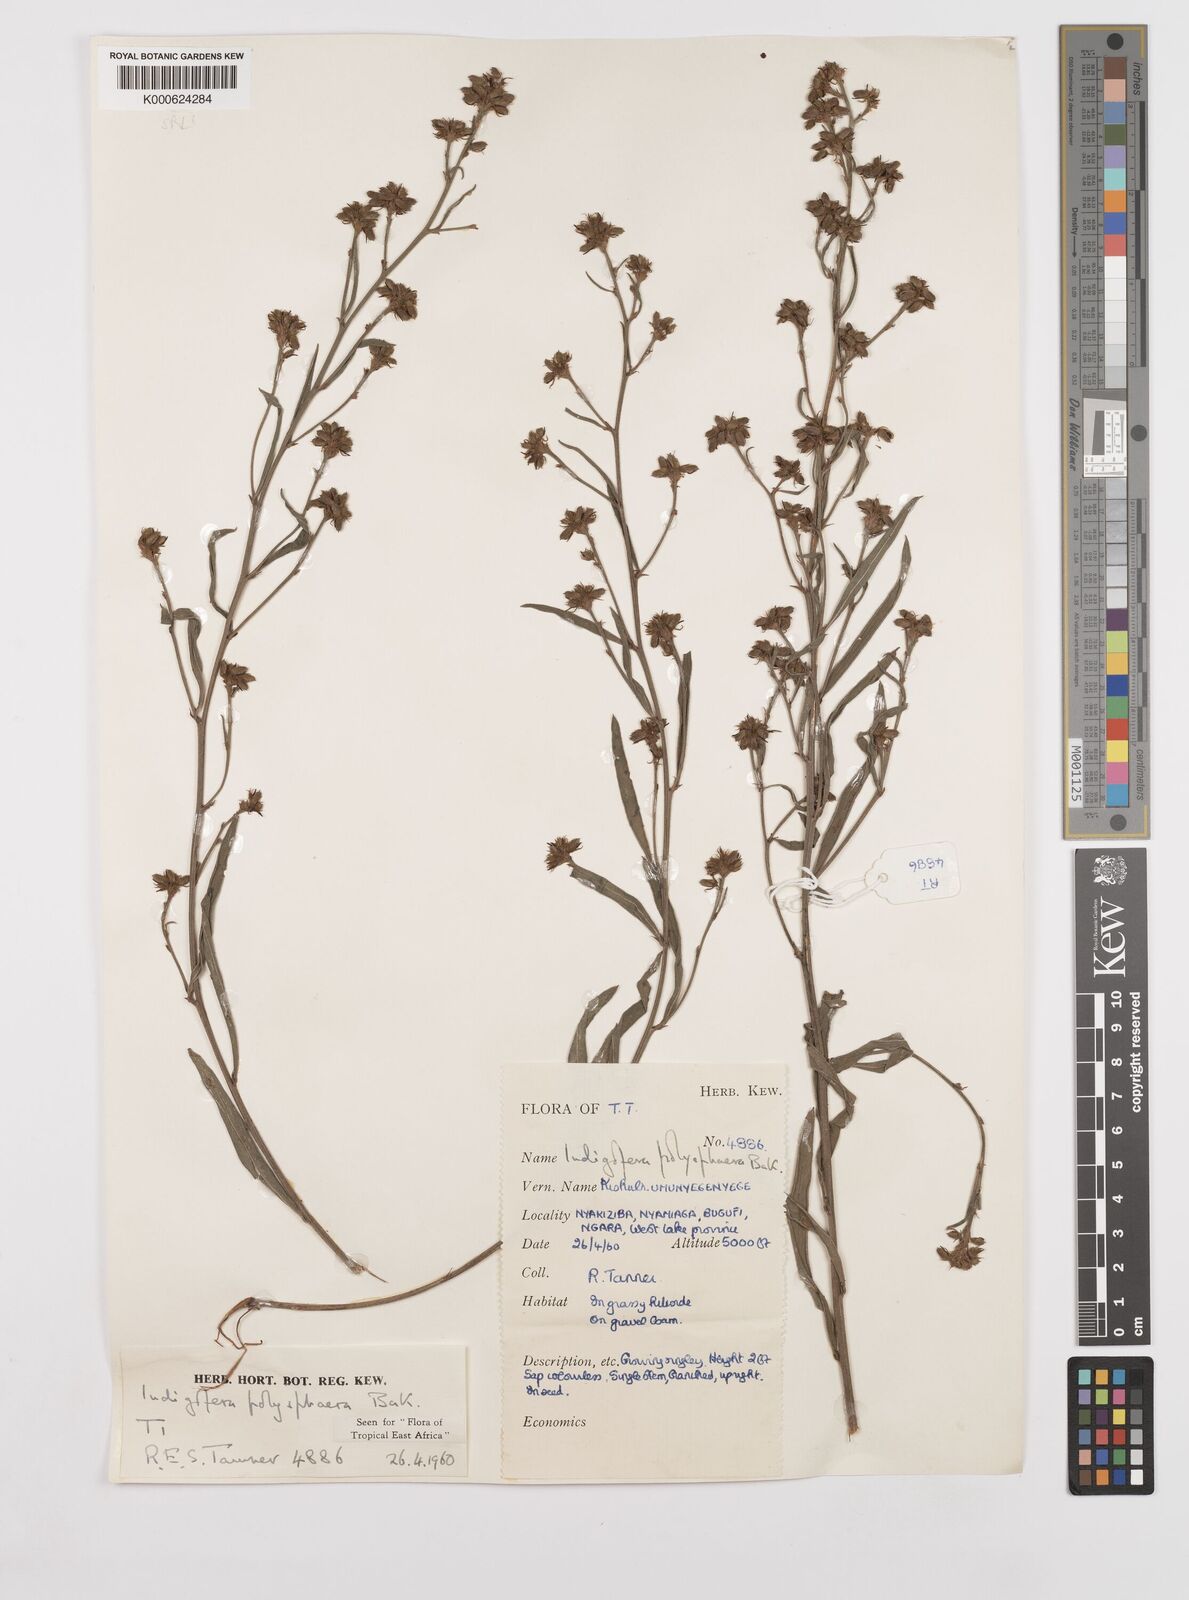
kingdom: Plantae
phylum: Tracheophyta
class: Magnoliopsida
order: Fabales
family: Fabaceae
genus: Indigofera
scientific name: Indigofera polysphaera
